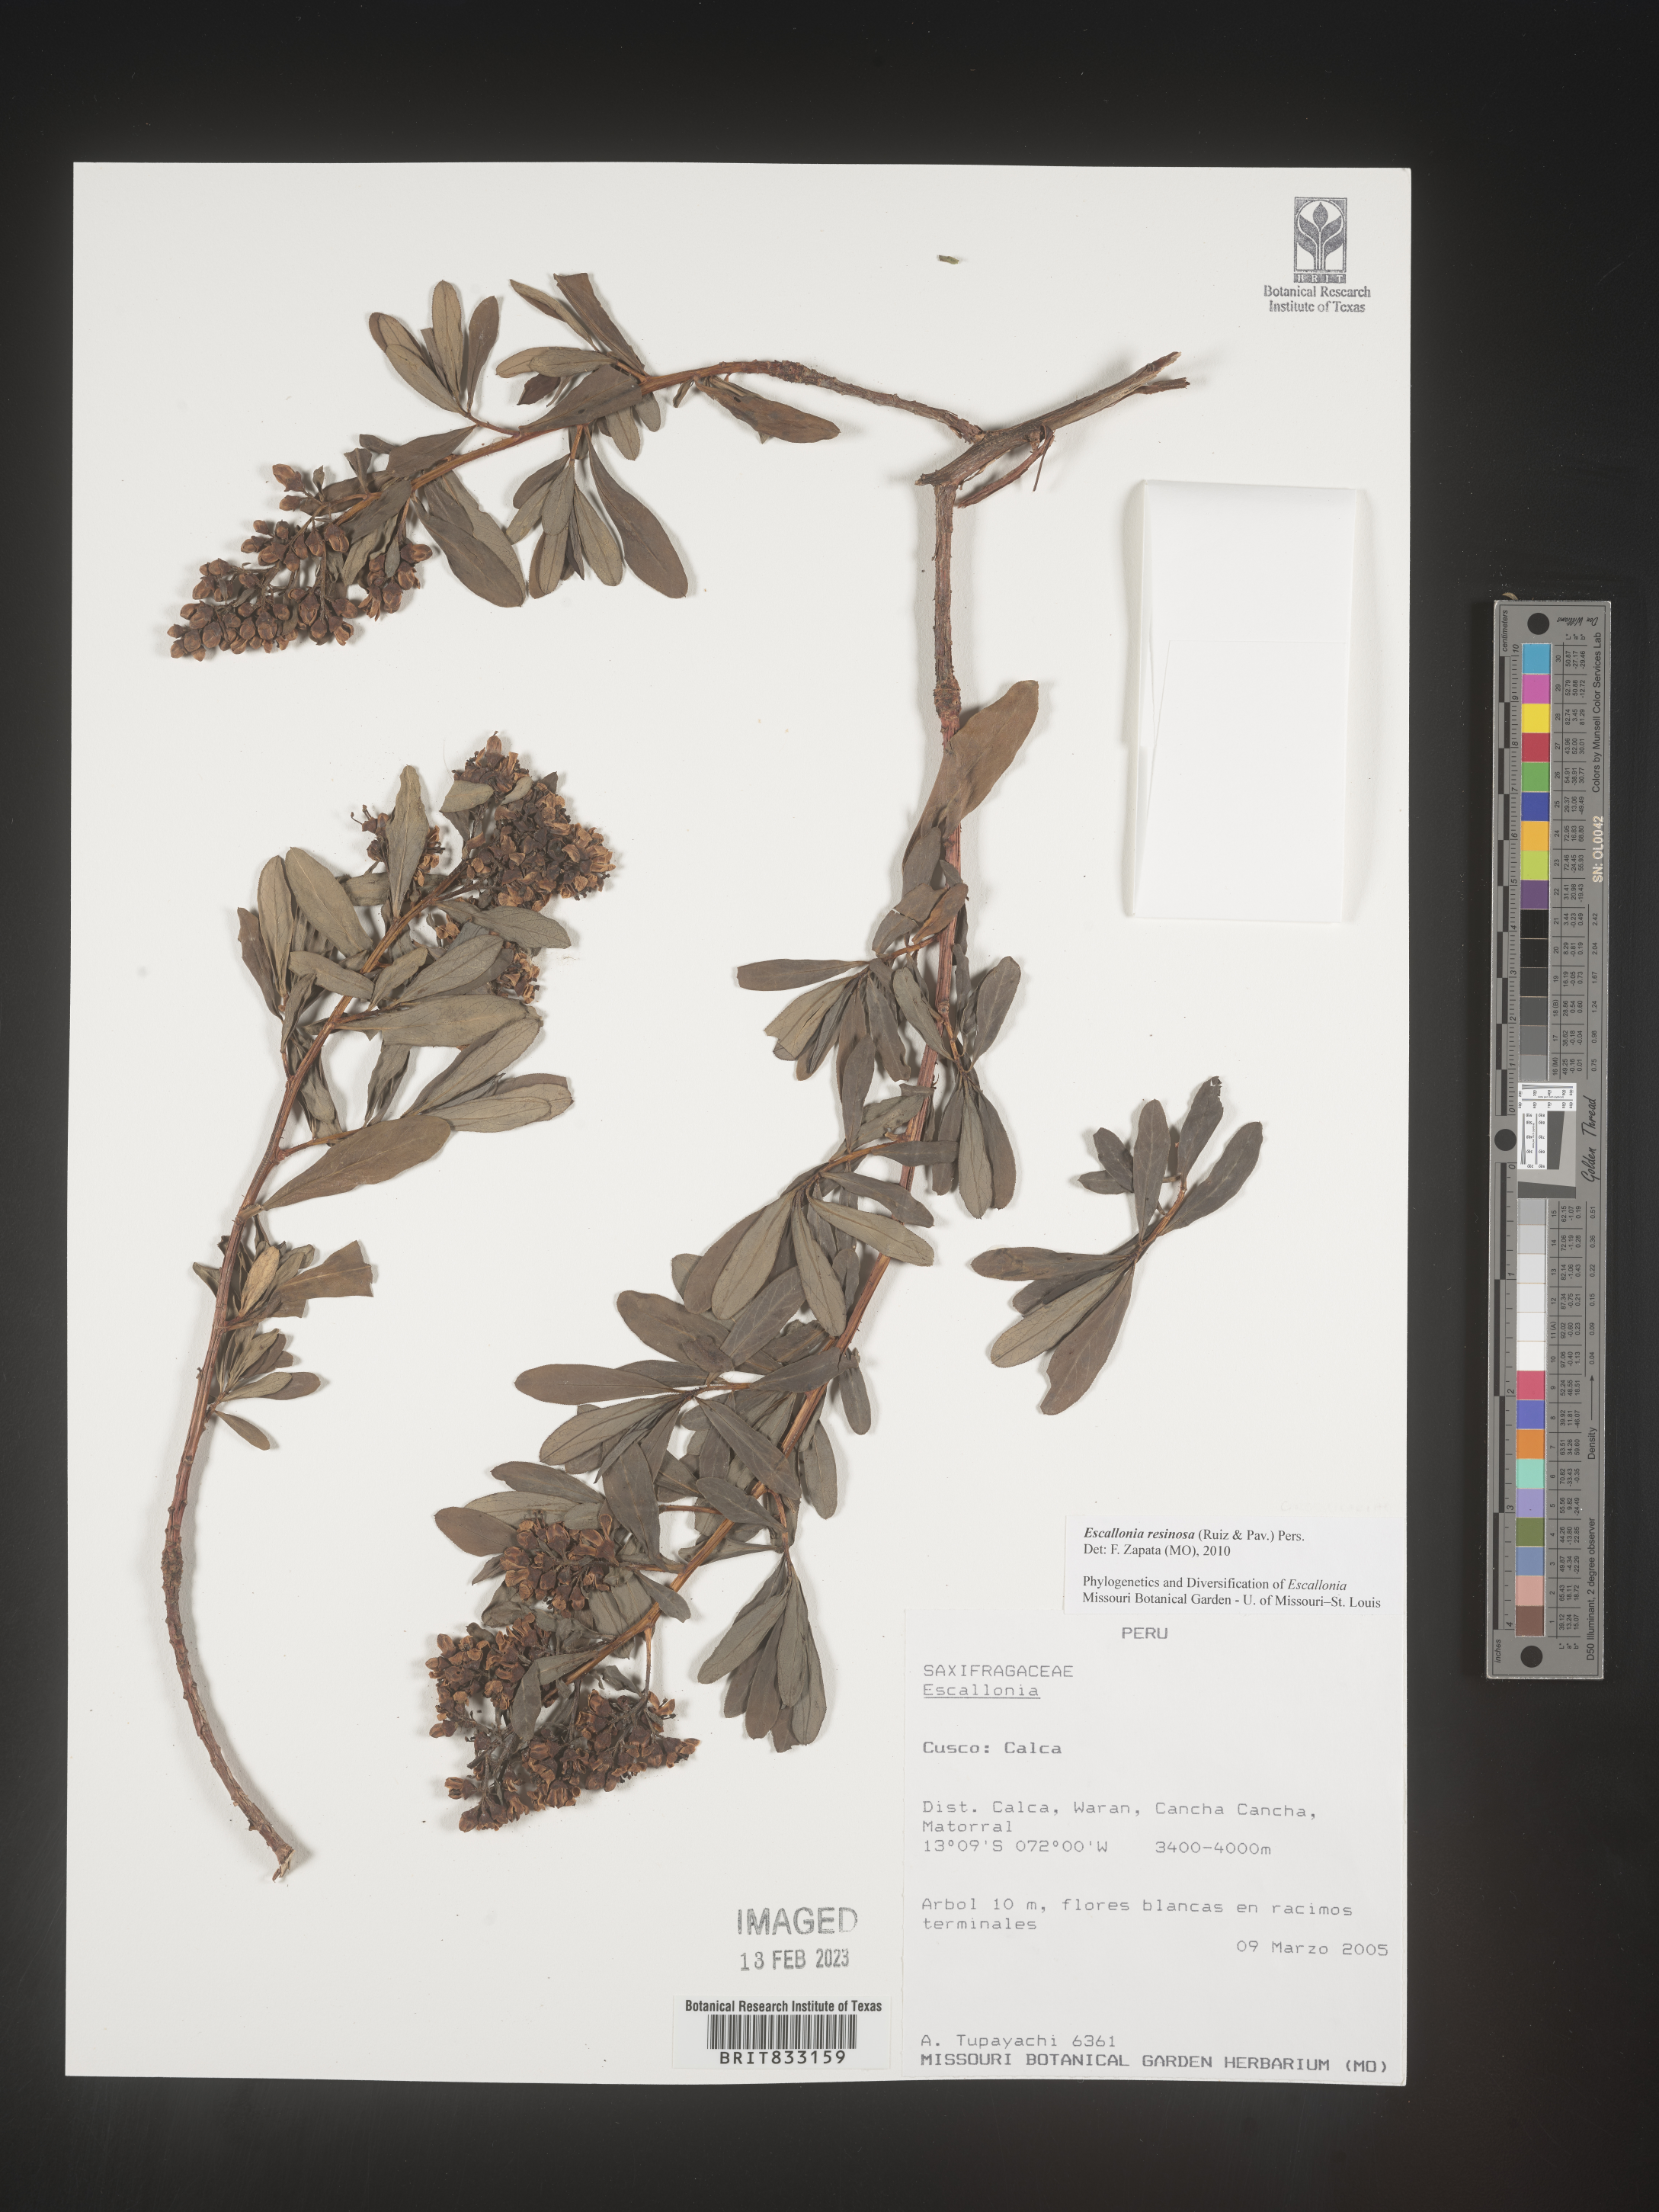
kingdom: Plantae
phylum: Tracheophyta
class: Magnoliopsida
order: Escalloniales
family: Escalloniaceae
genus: Escallonia
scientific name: Escallonia resinosa
